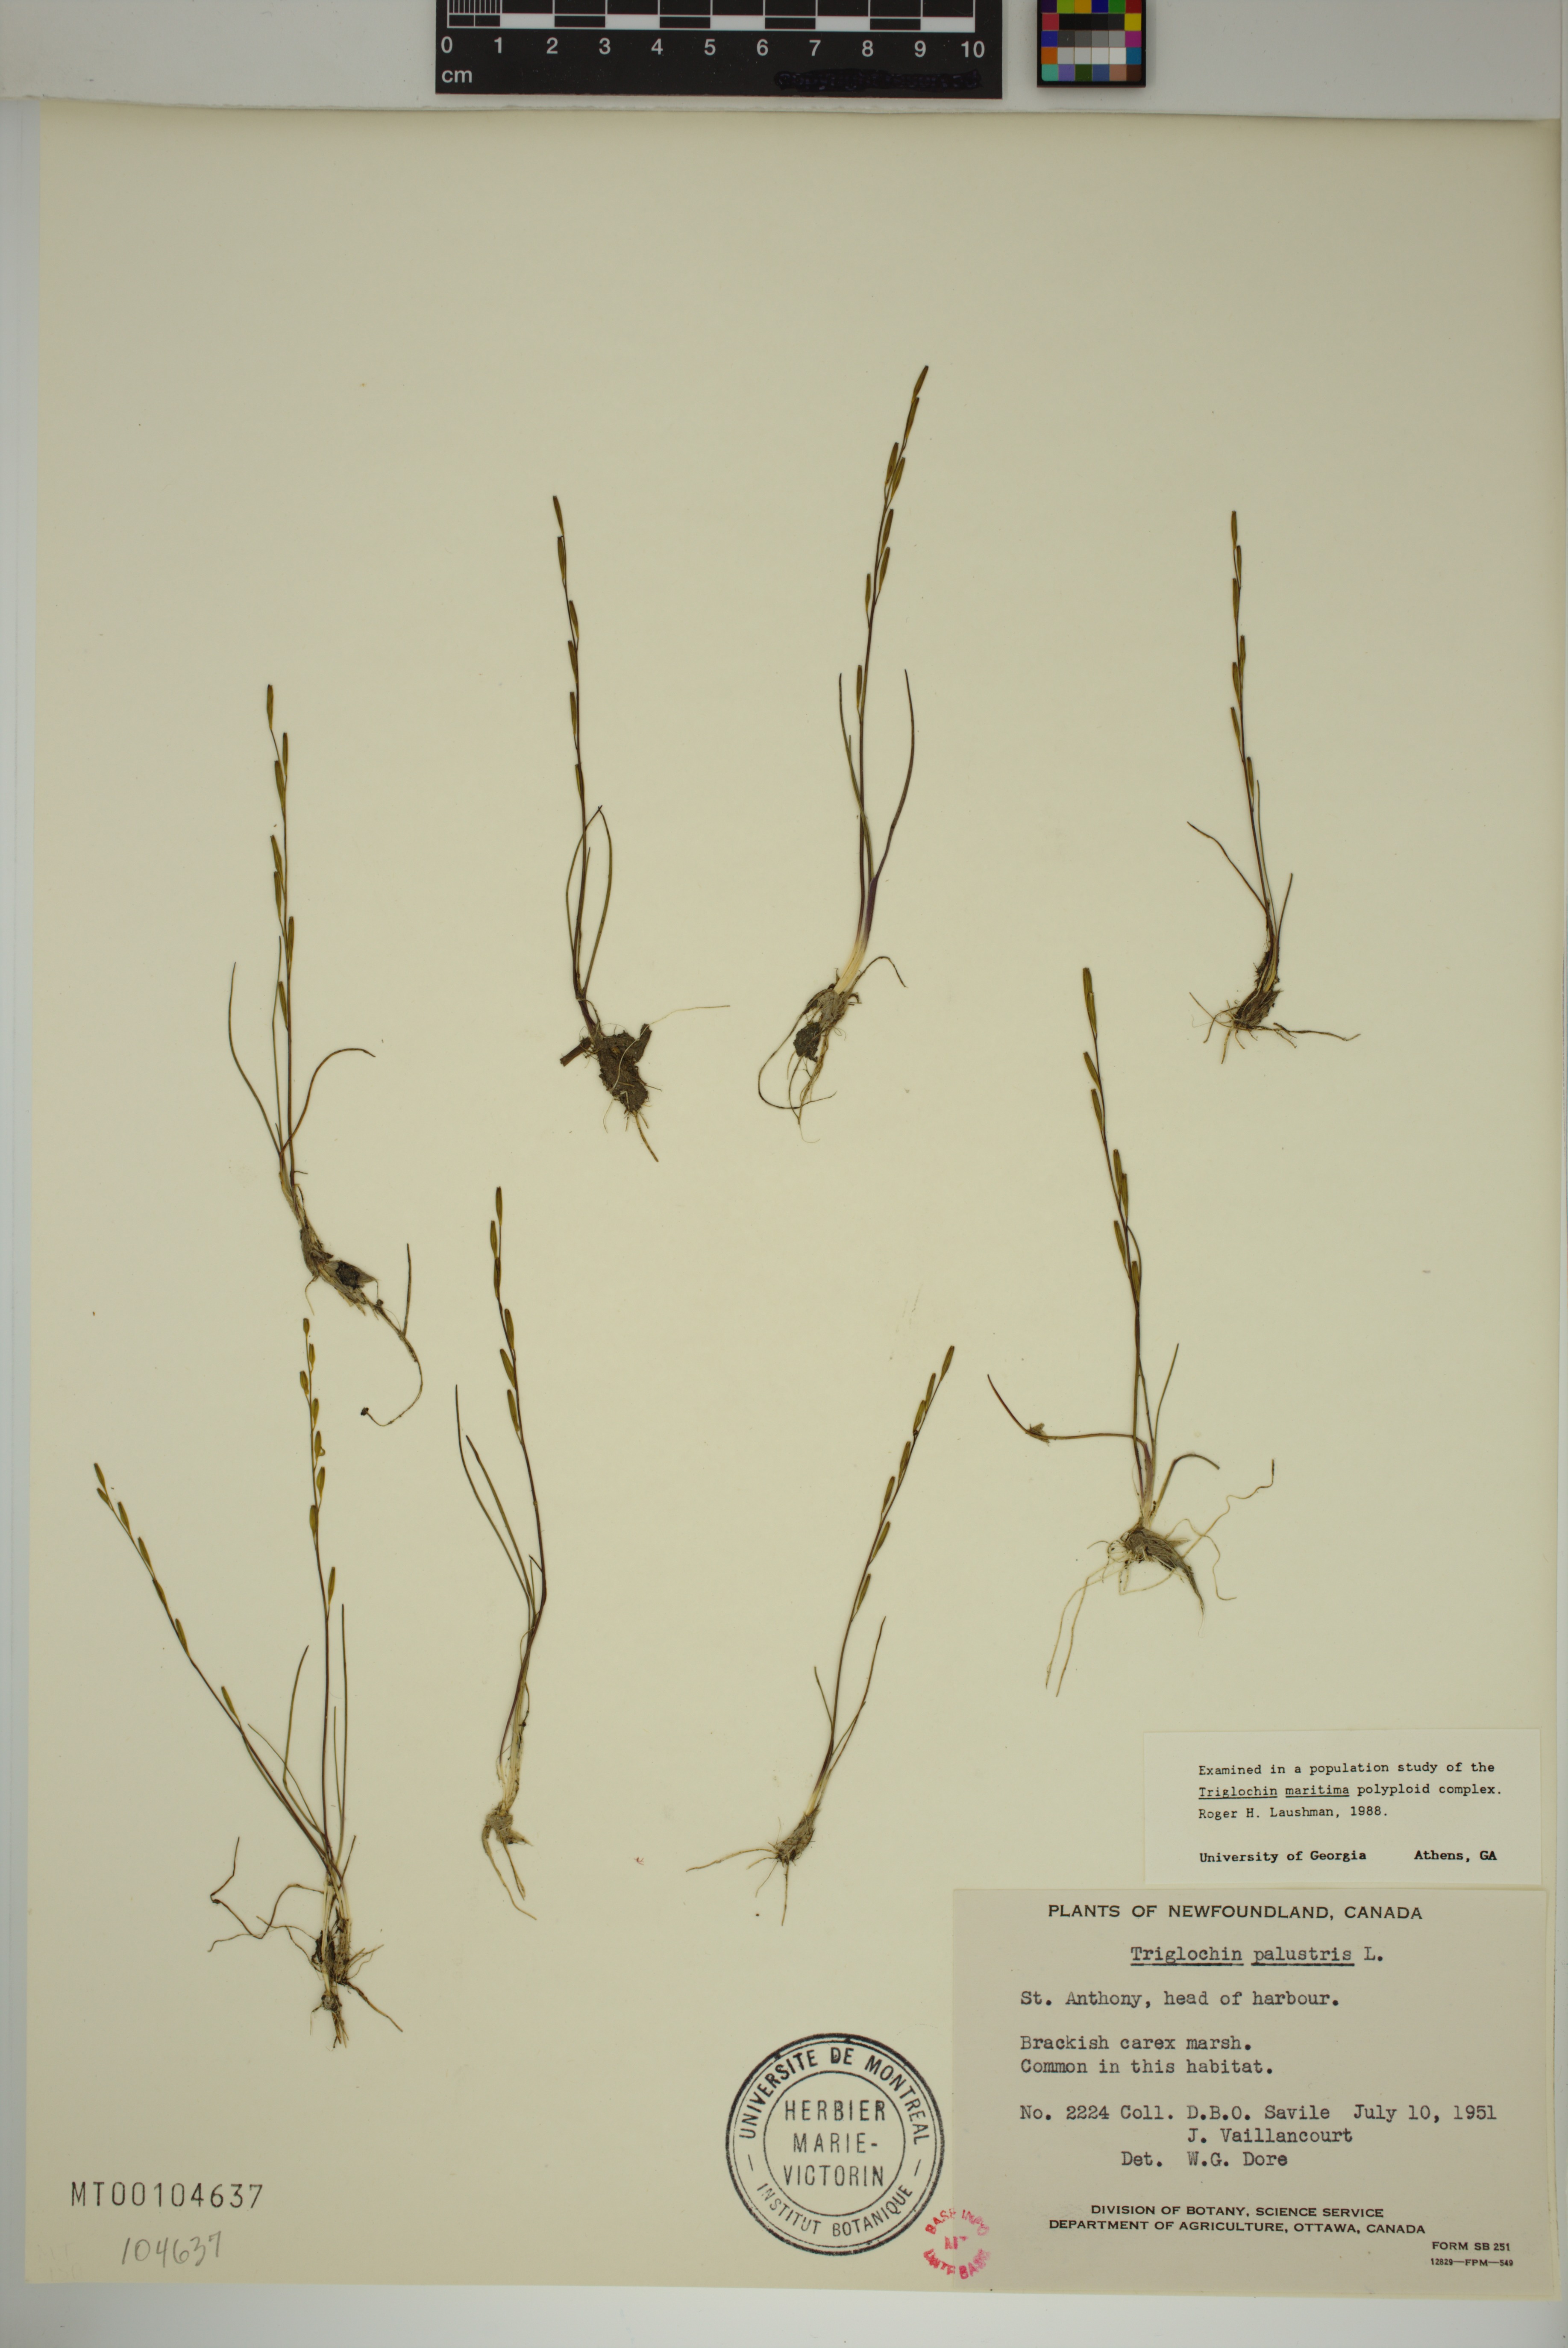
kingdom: Plantae
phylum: Tracheophyta
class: Liliopsida
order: Alismatales
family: Juncaginaceae
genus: Triglochin
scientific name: Triglochin palustris
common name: Marsh arrowgrass
